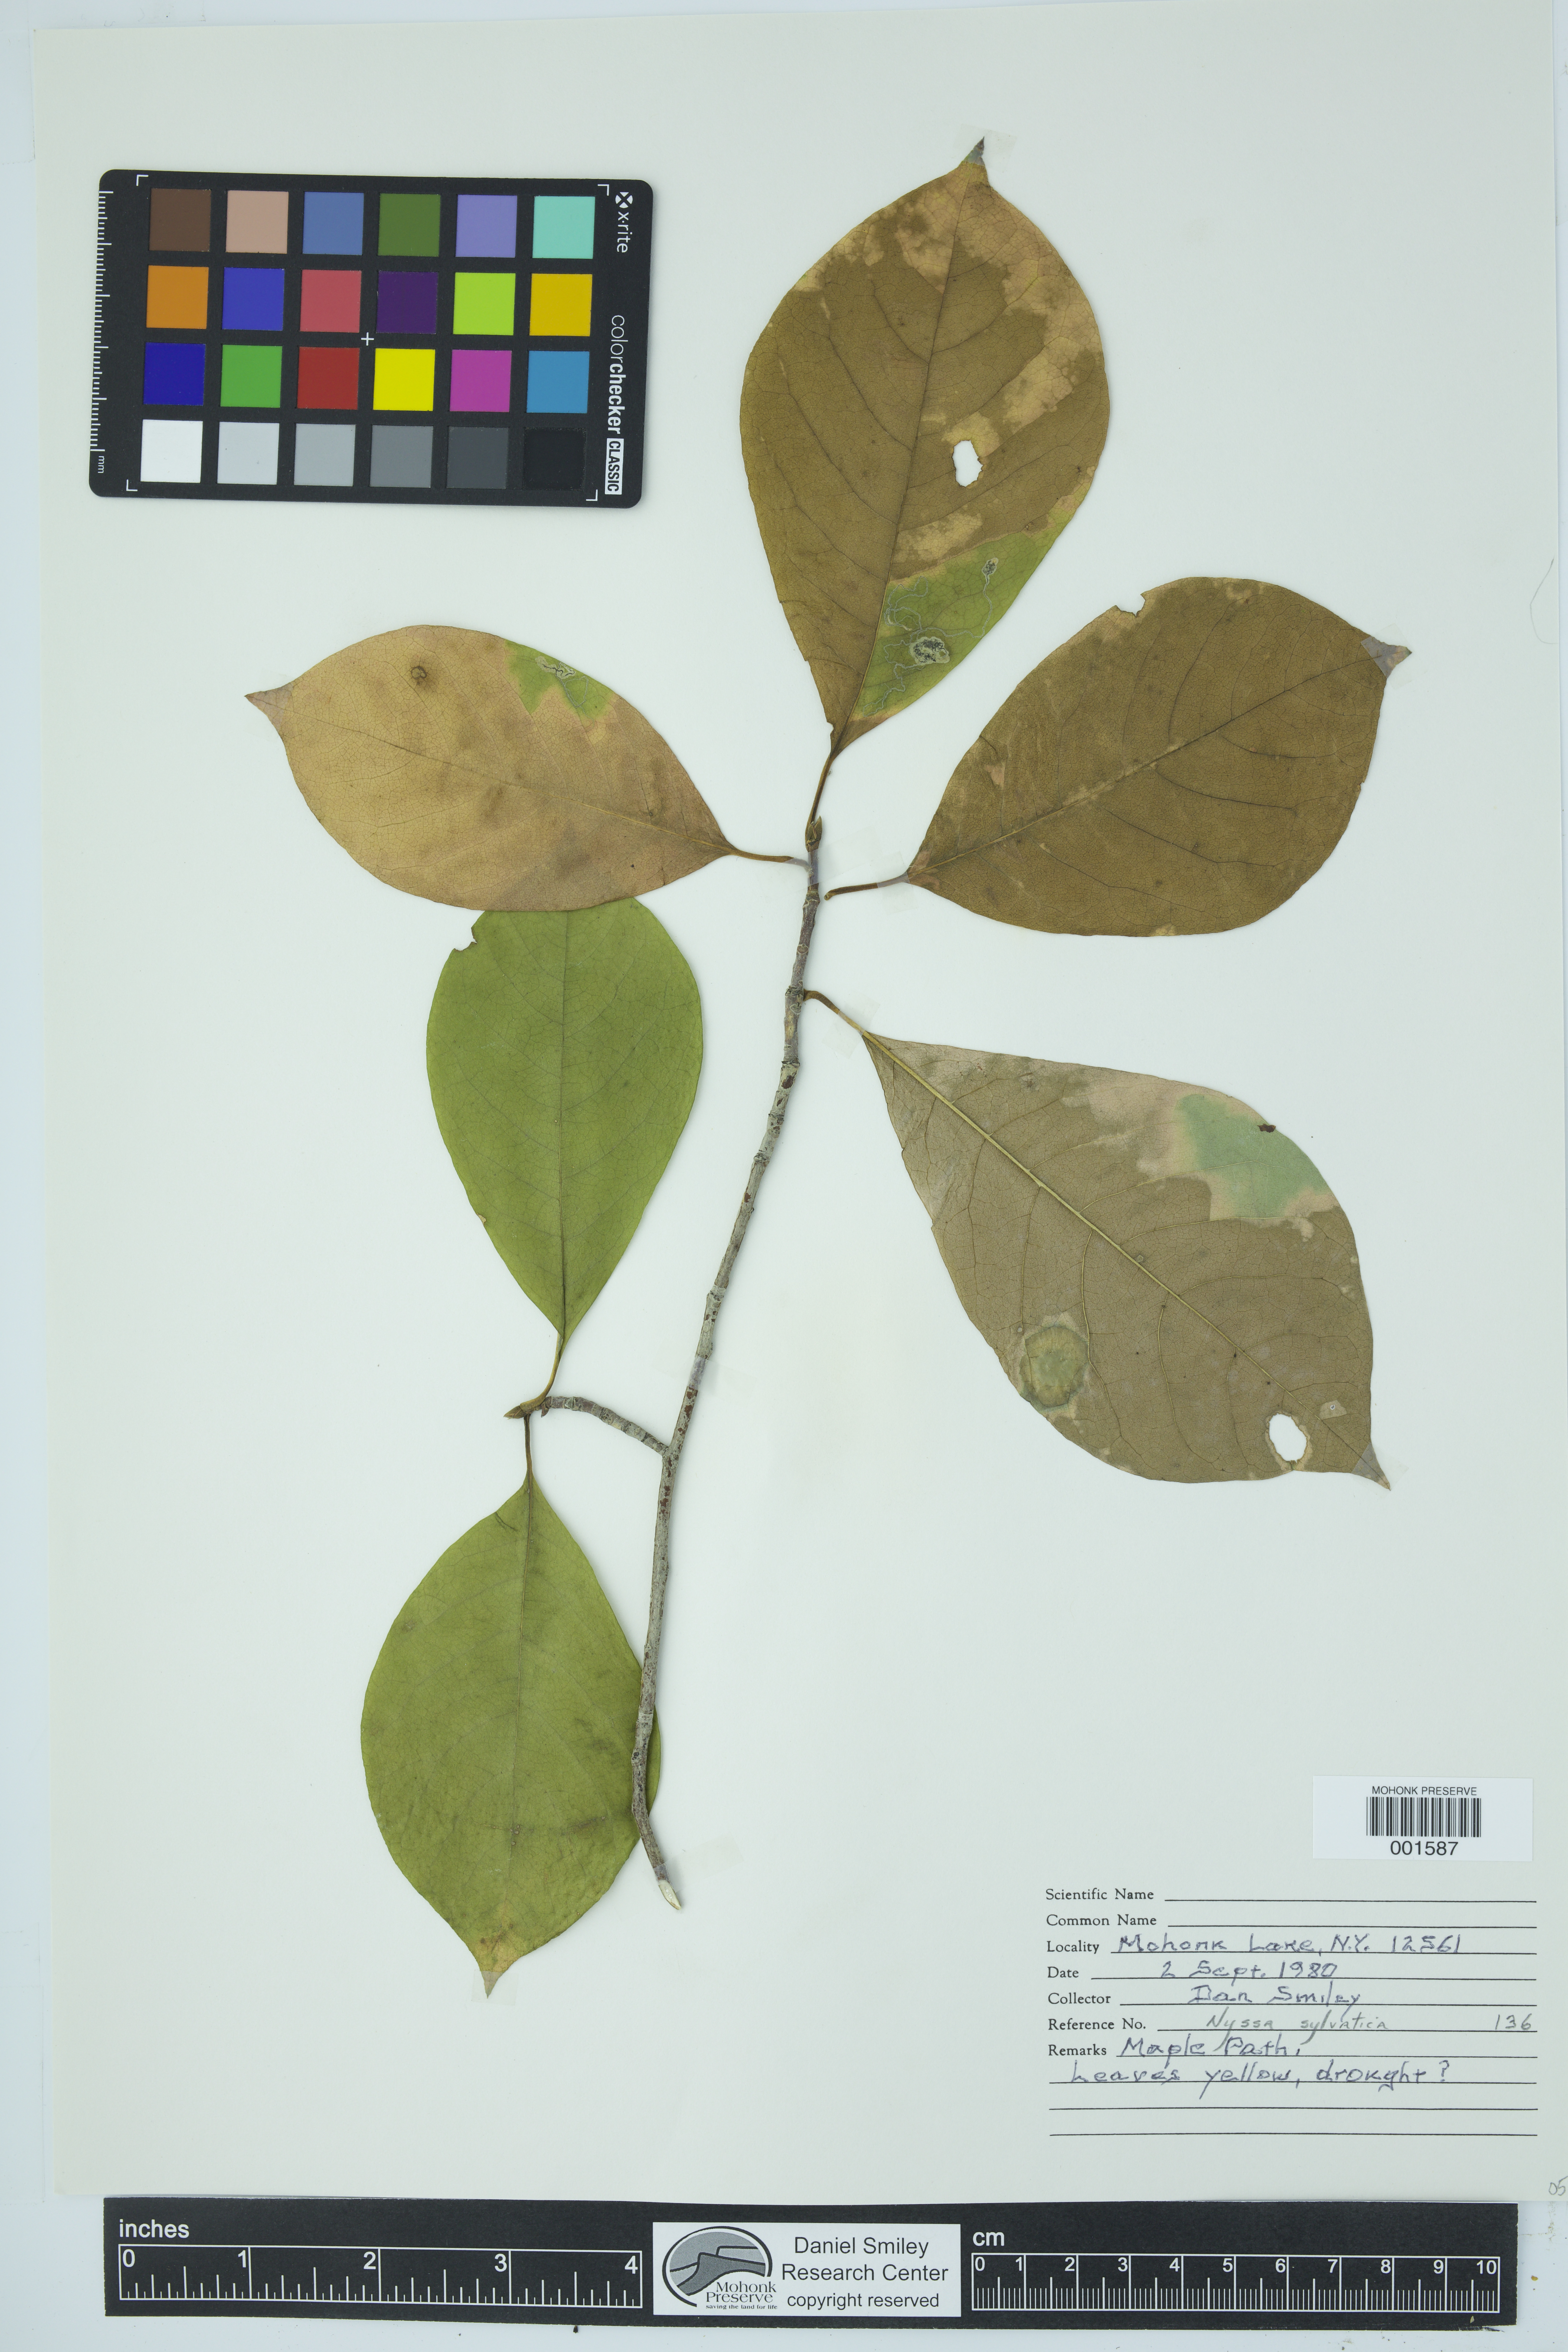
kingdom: Plantae
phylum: Tracheophyta
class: Magnoliopsida
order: Cornales
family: Nyssaceae
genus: Nyssa
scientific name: Nyssa sylvatica
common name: Black tupelo
